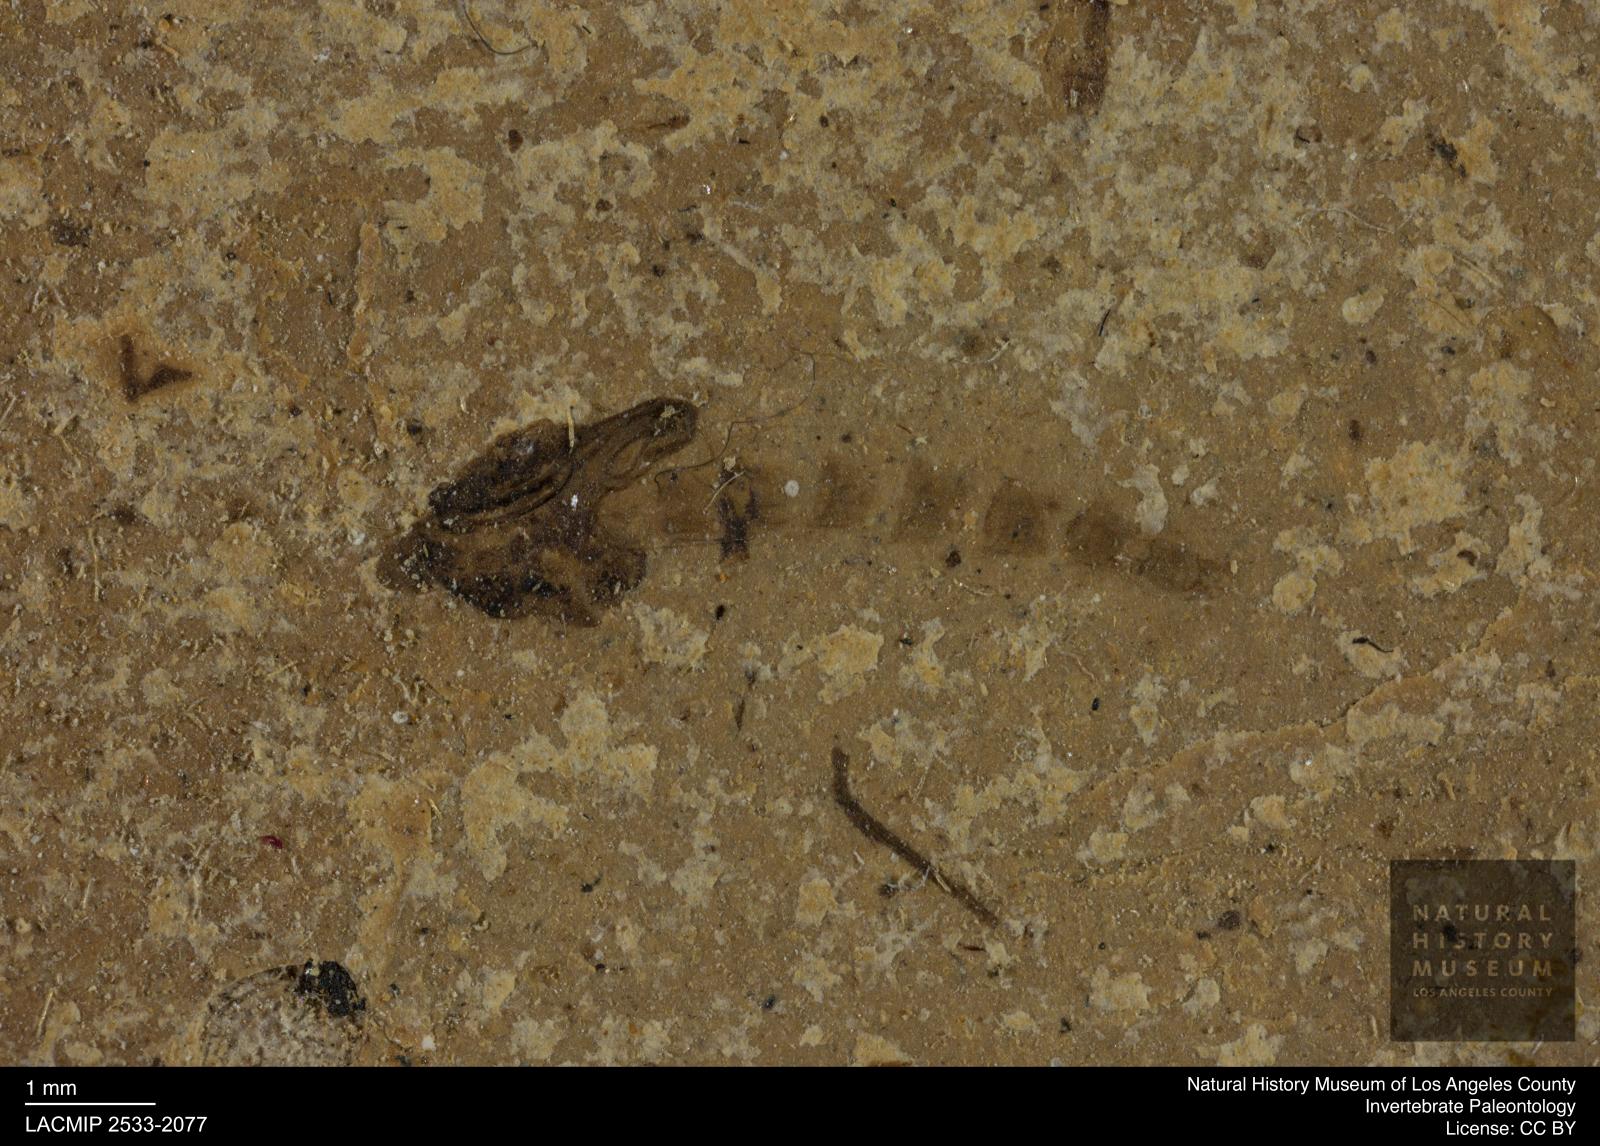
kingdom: Animalia
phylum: Arthropoda
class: Insecta
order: Diptera
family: Chironomidae
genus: Pelopiina
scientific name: Pelopiina
